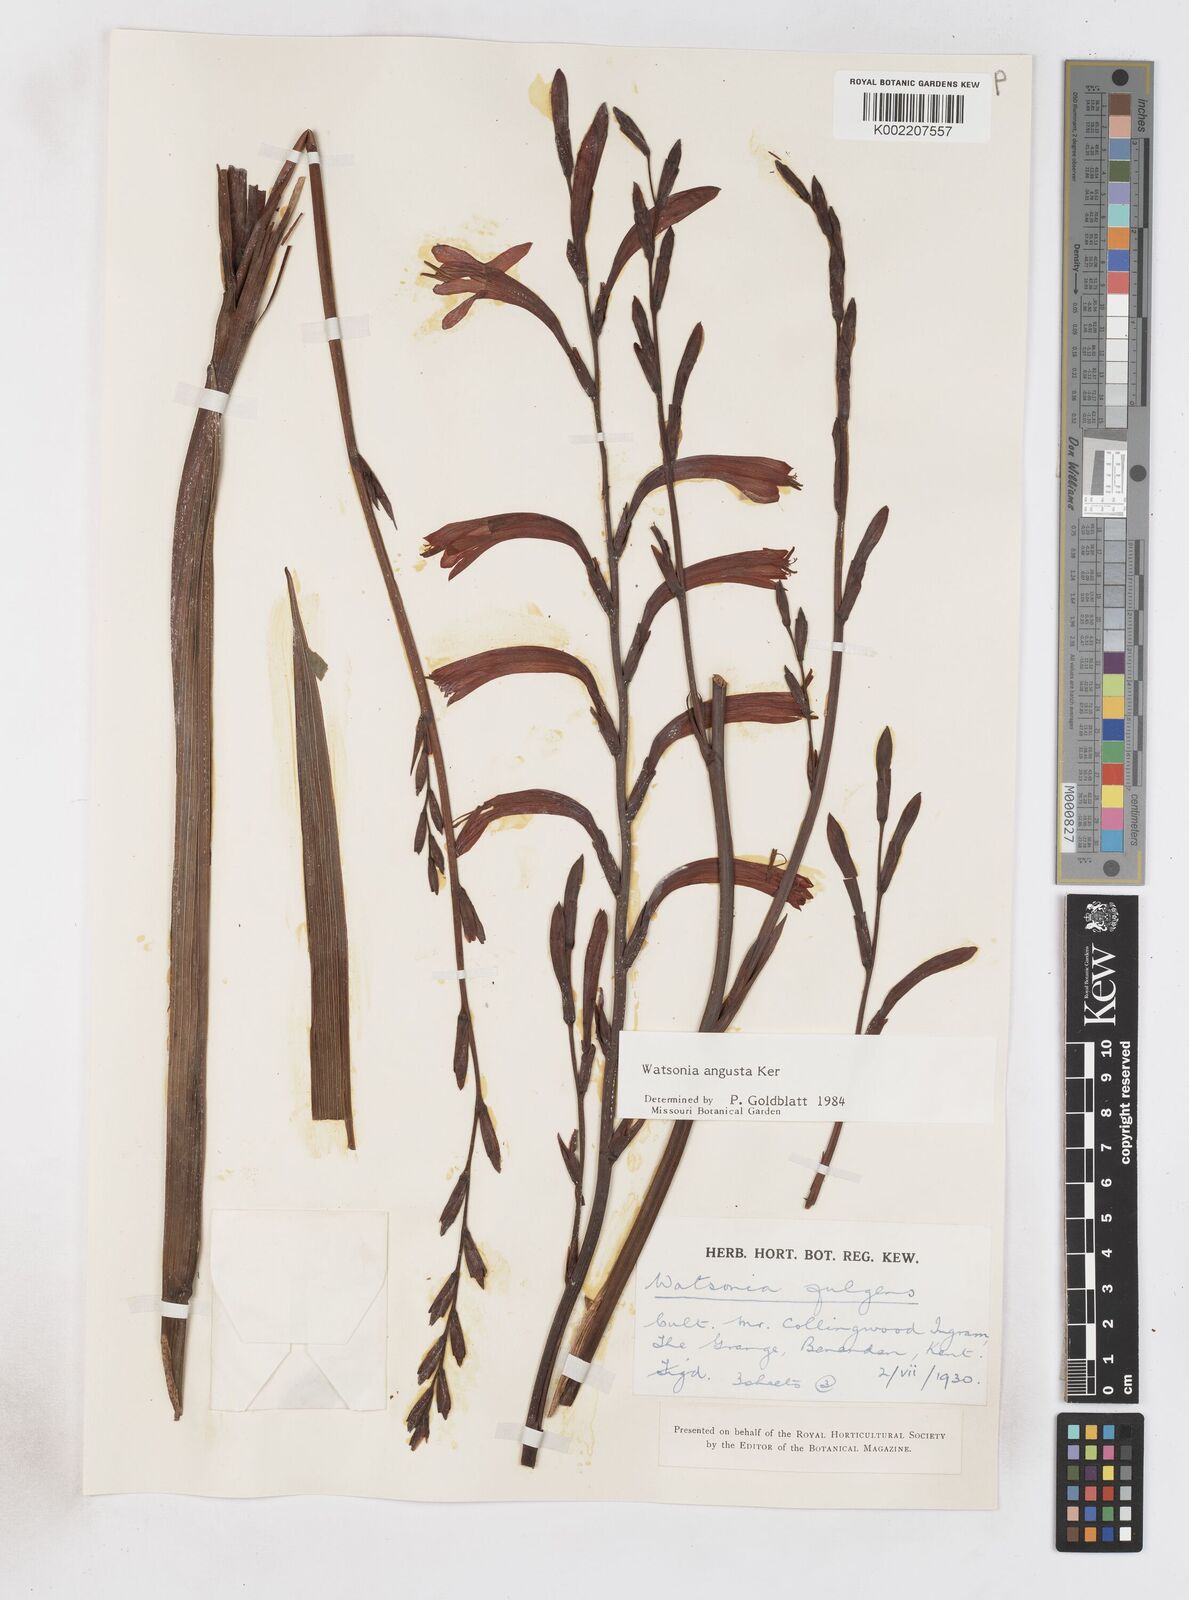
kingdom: Plantae
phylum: Tracheophyta
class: Liliopsida
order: Asparagales
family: Iridaceae
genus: Watsonia
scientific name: Watsonia angusta
